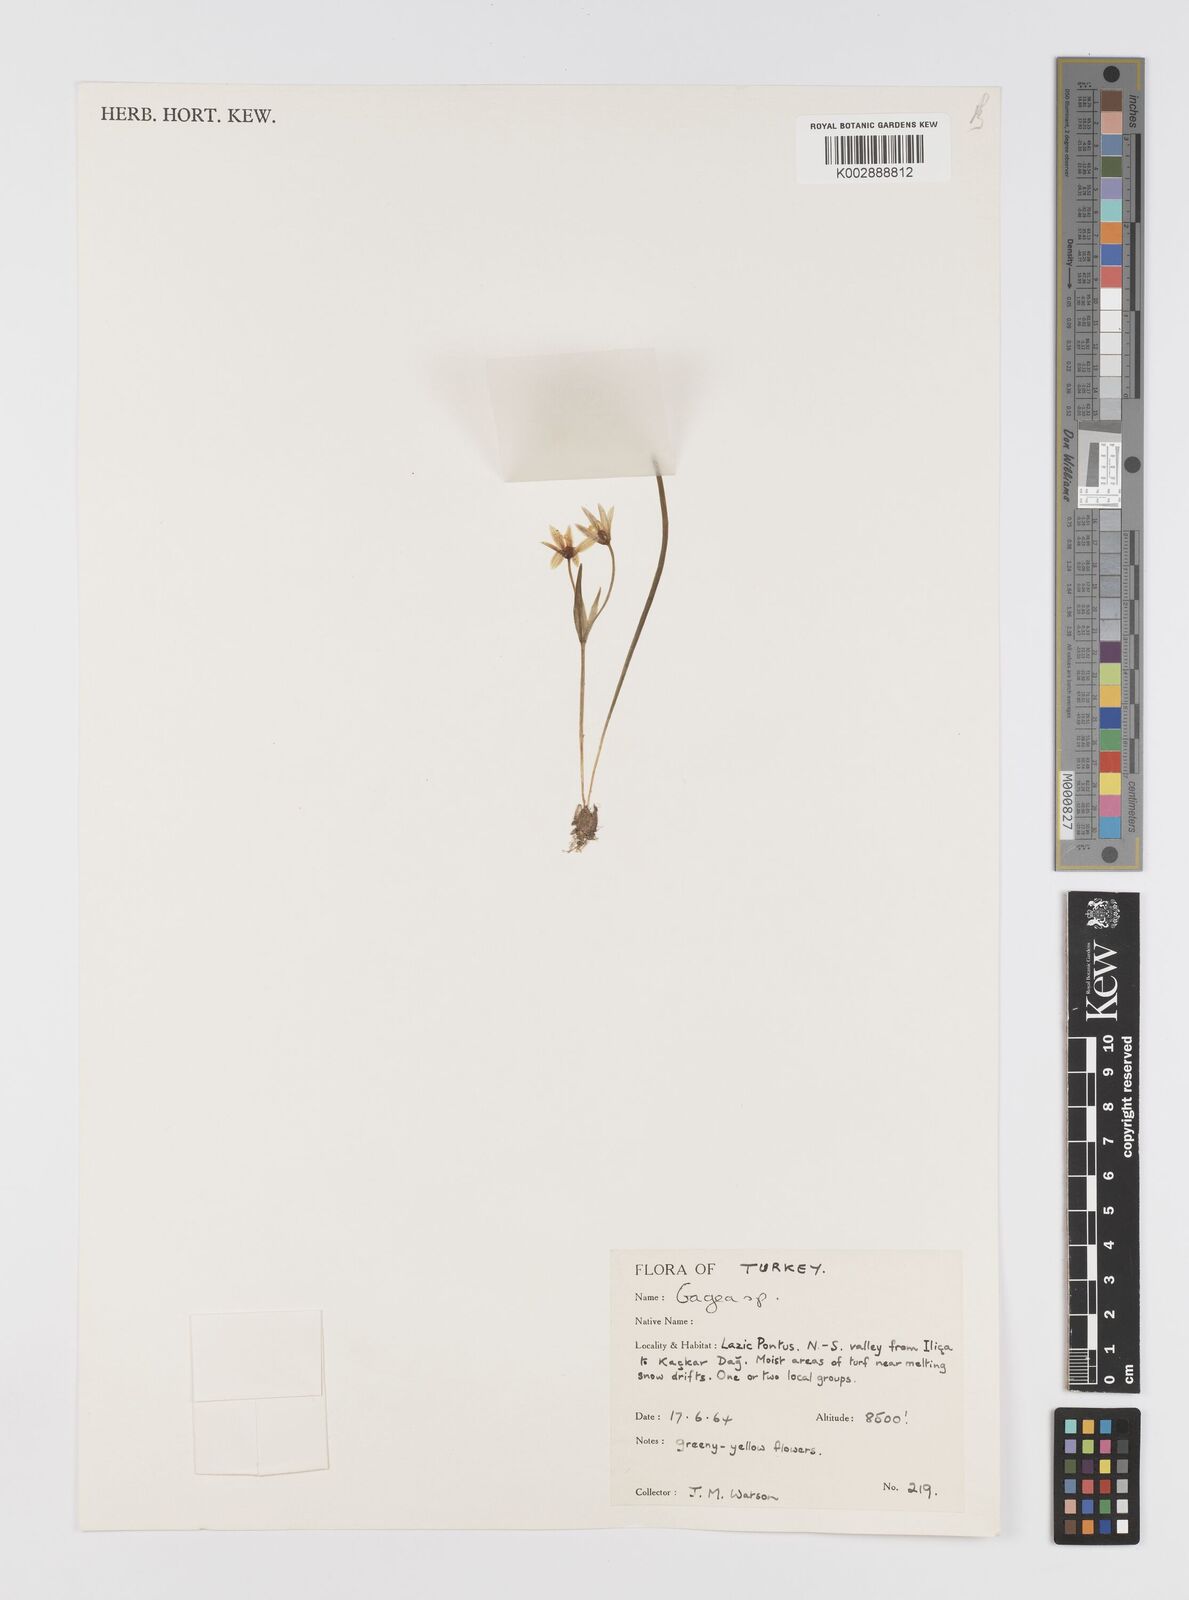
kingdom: Plantae
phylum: Tracheophyta
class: Liliopsida
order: Liliales
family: Liliaceae
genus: Gagea
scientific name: Gagea
